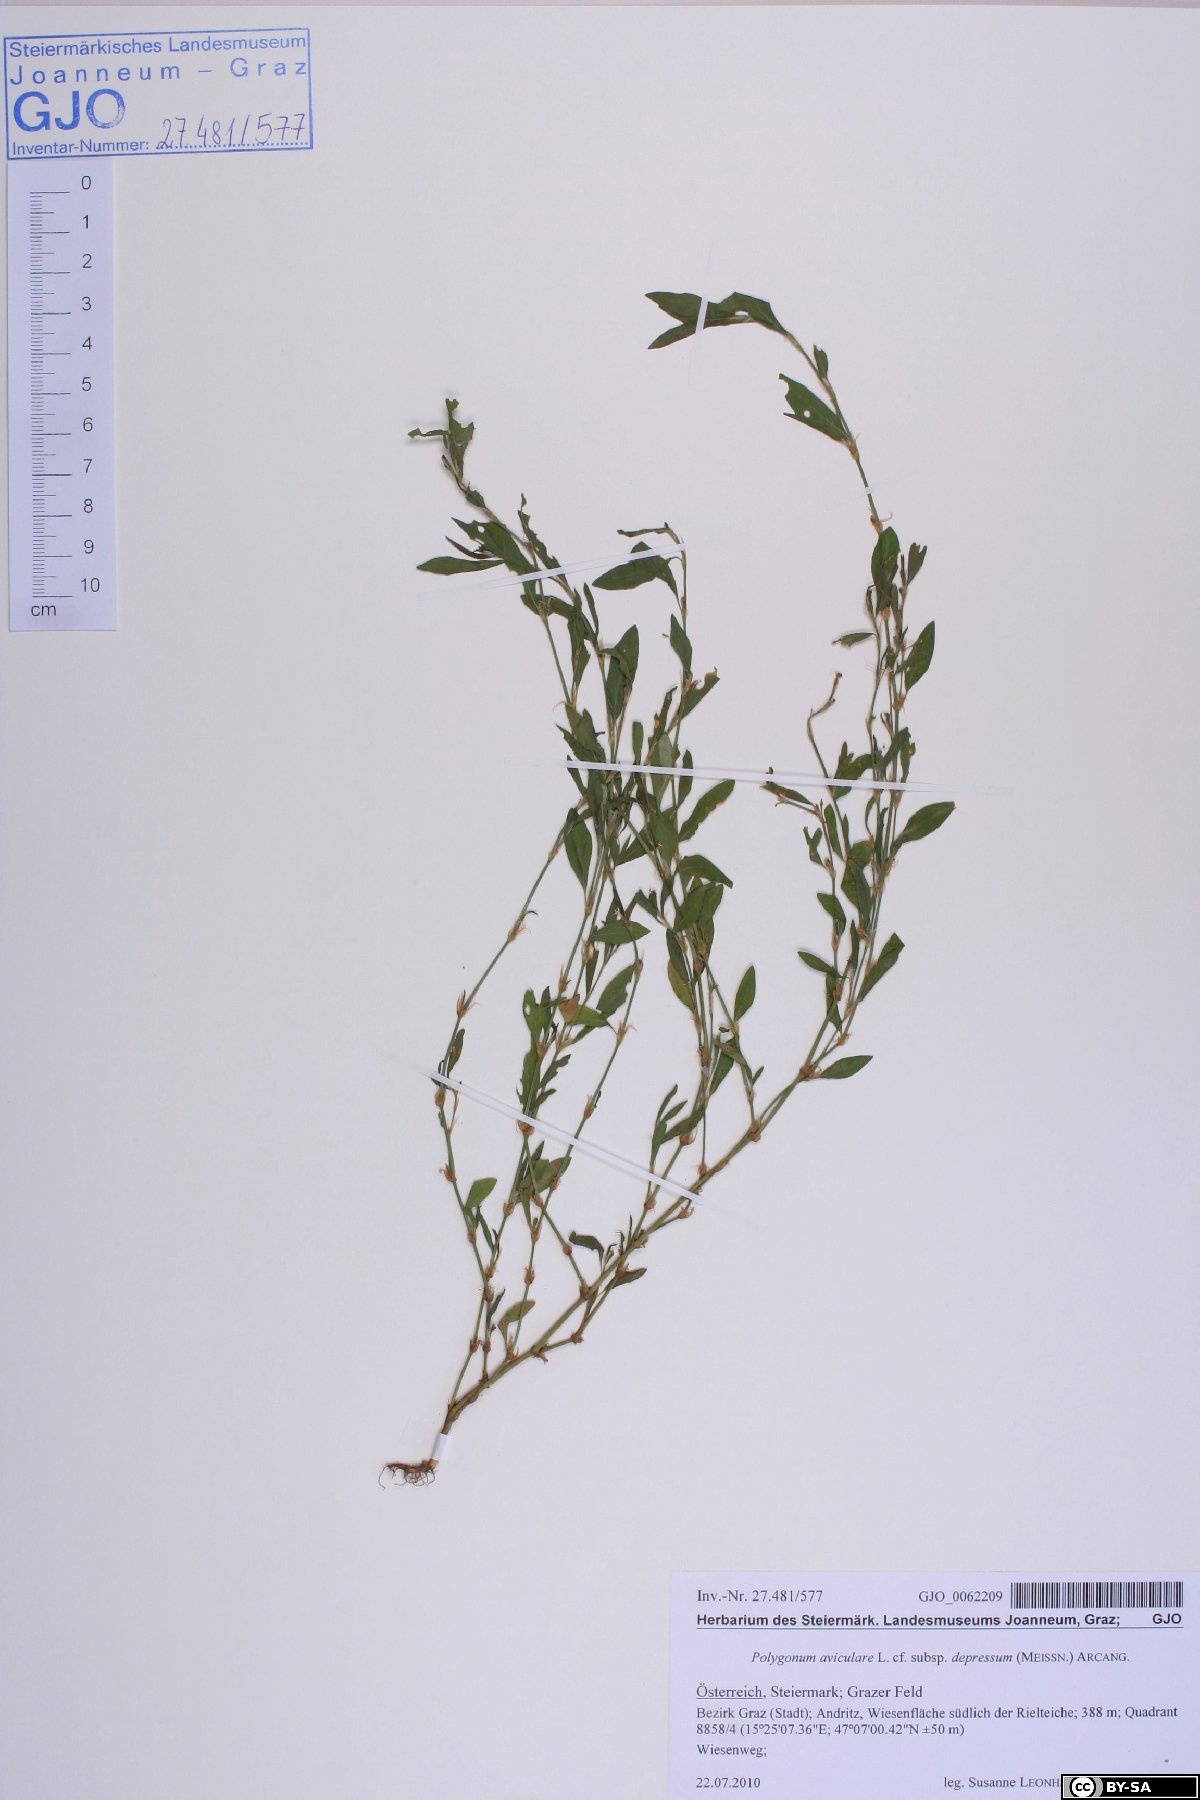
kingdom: Plantae
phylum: Tracheophyta
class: Magnoliopsida
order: Caryophyllales
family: Polygonaceae
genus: Polygonum
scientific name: Polygonum arenastrum
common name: Equal-leaved knotgrass
